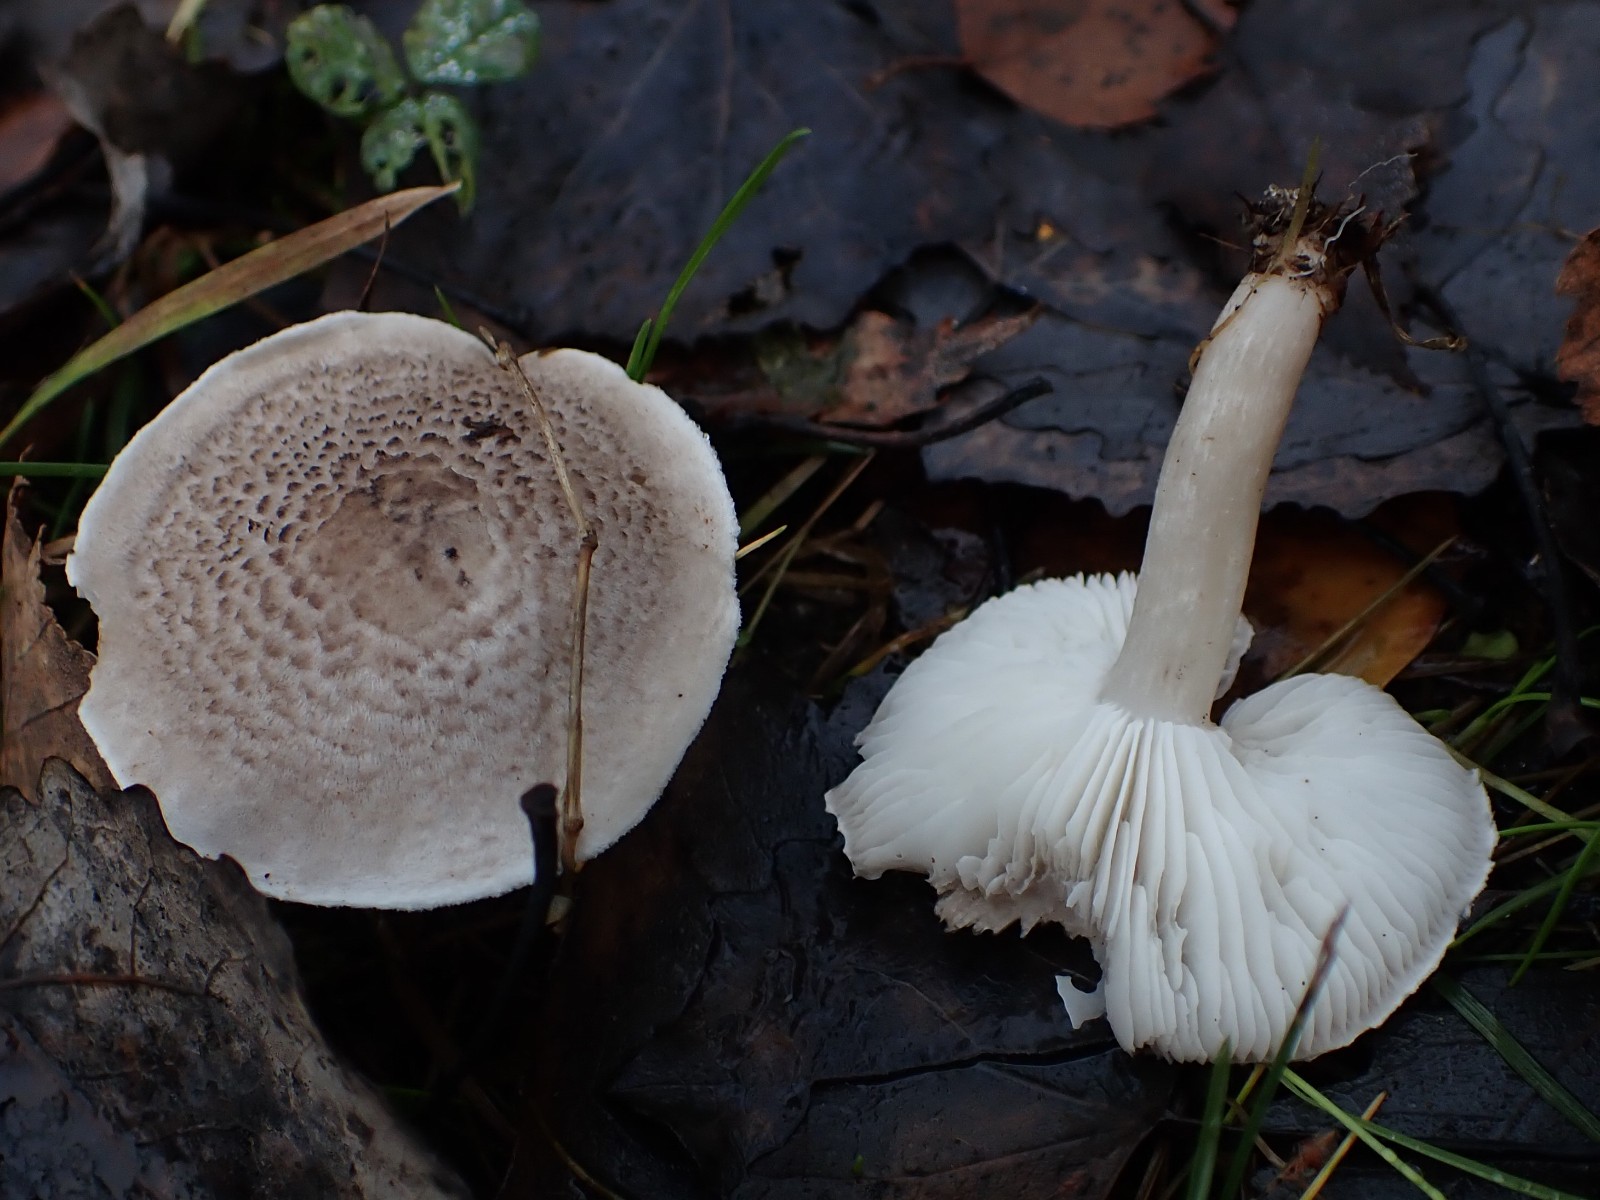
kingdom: Fungi
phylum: Basidiomycota
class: Agaricomycetes
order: Agaricales
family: Tricholomataceae
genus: Tricholoma
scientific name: Tricholoma scalpturatum
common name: gulplettet ridderhat
